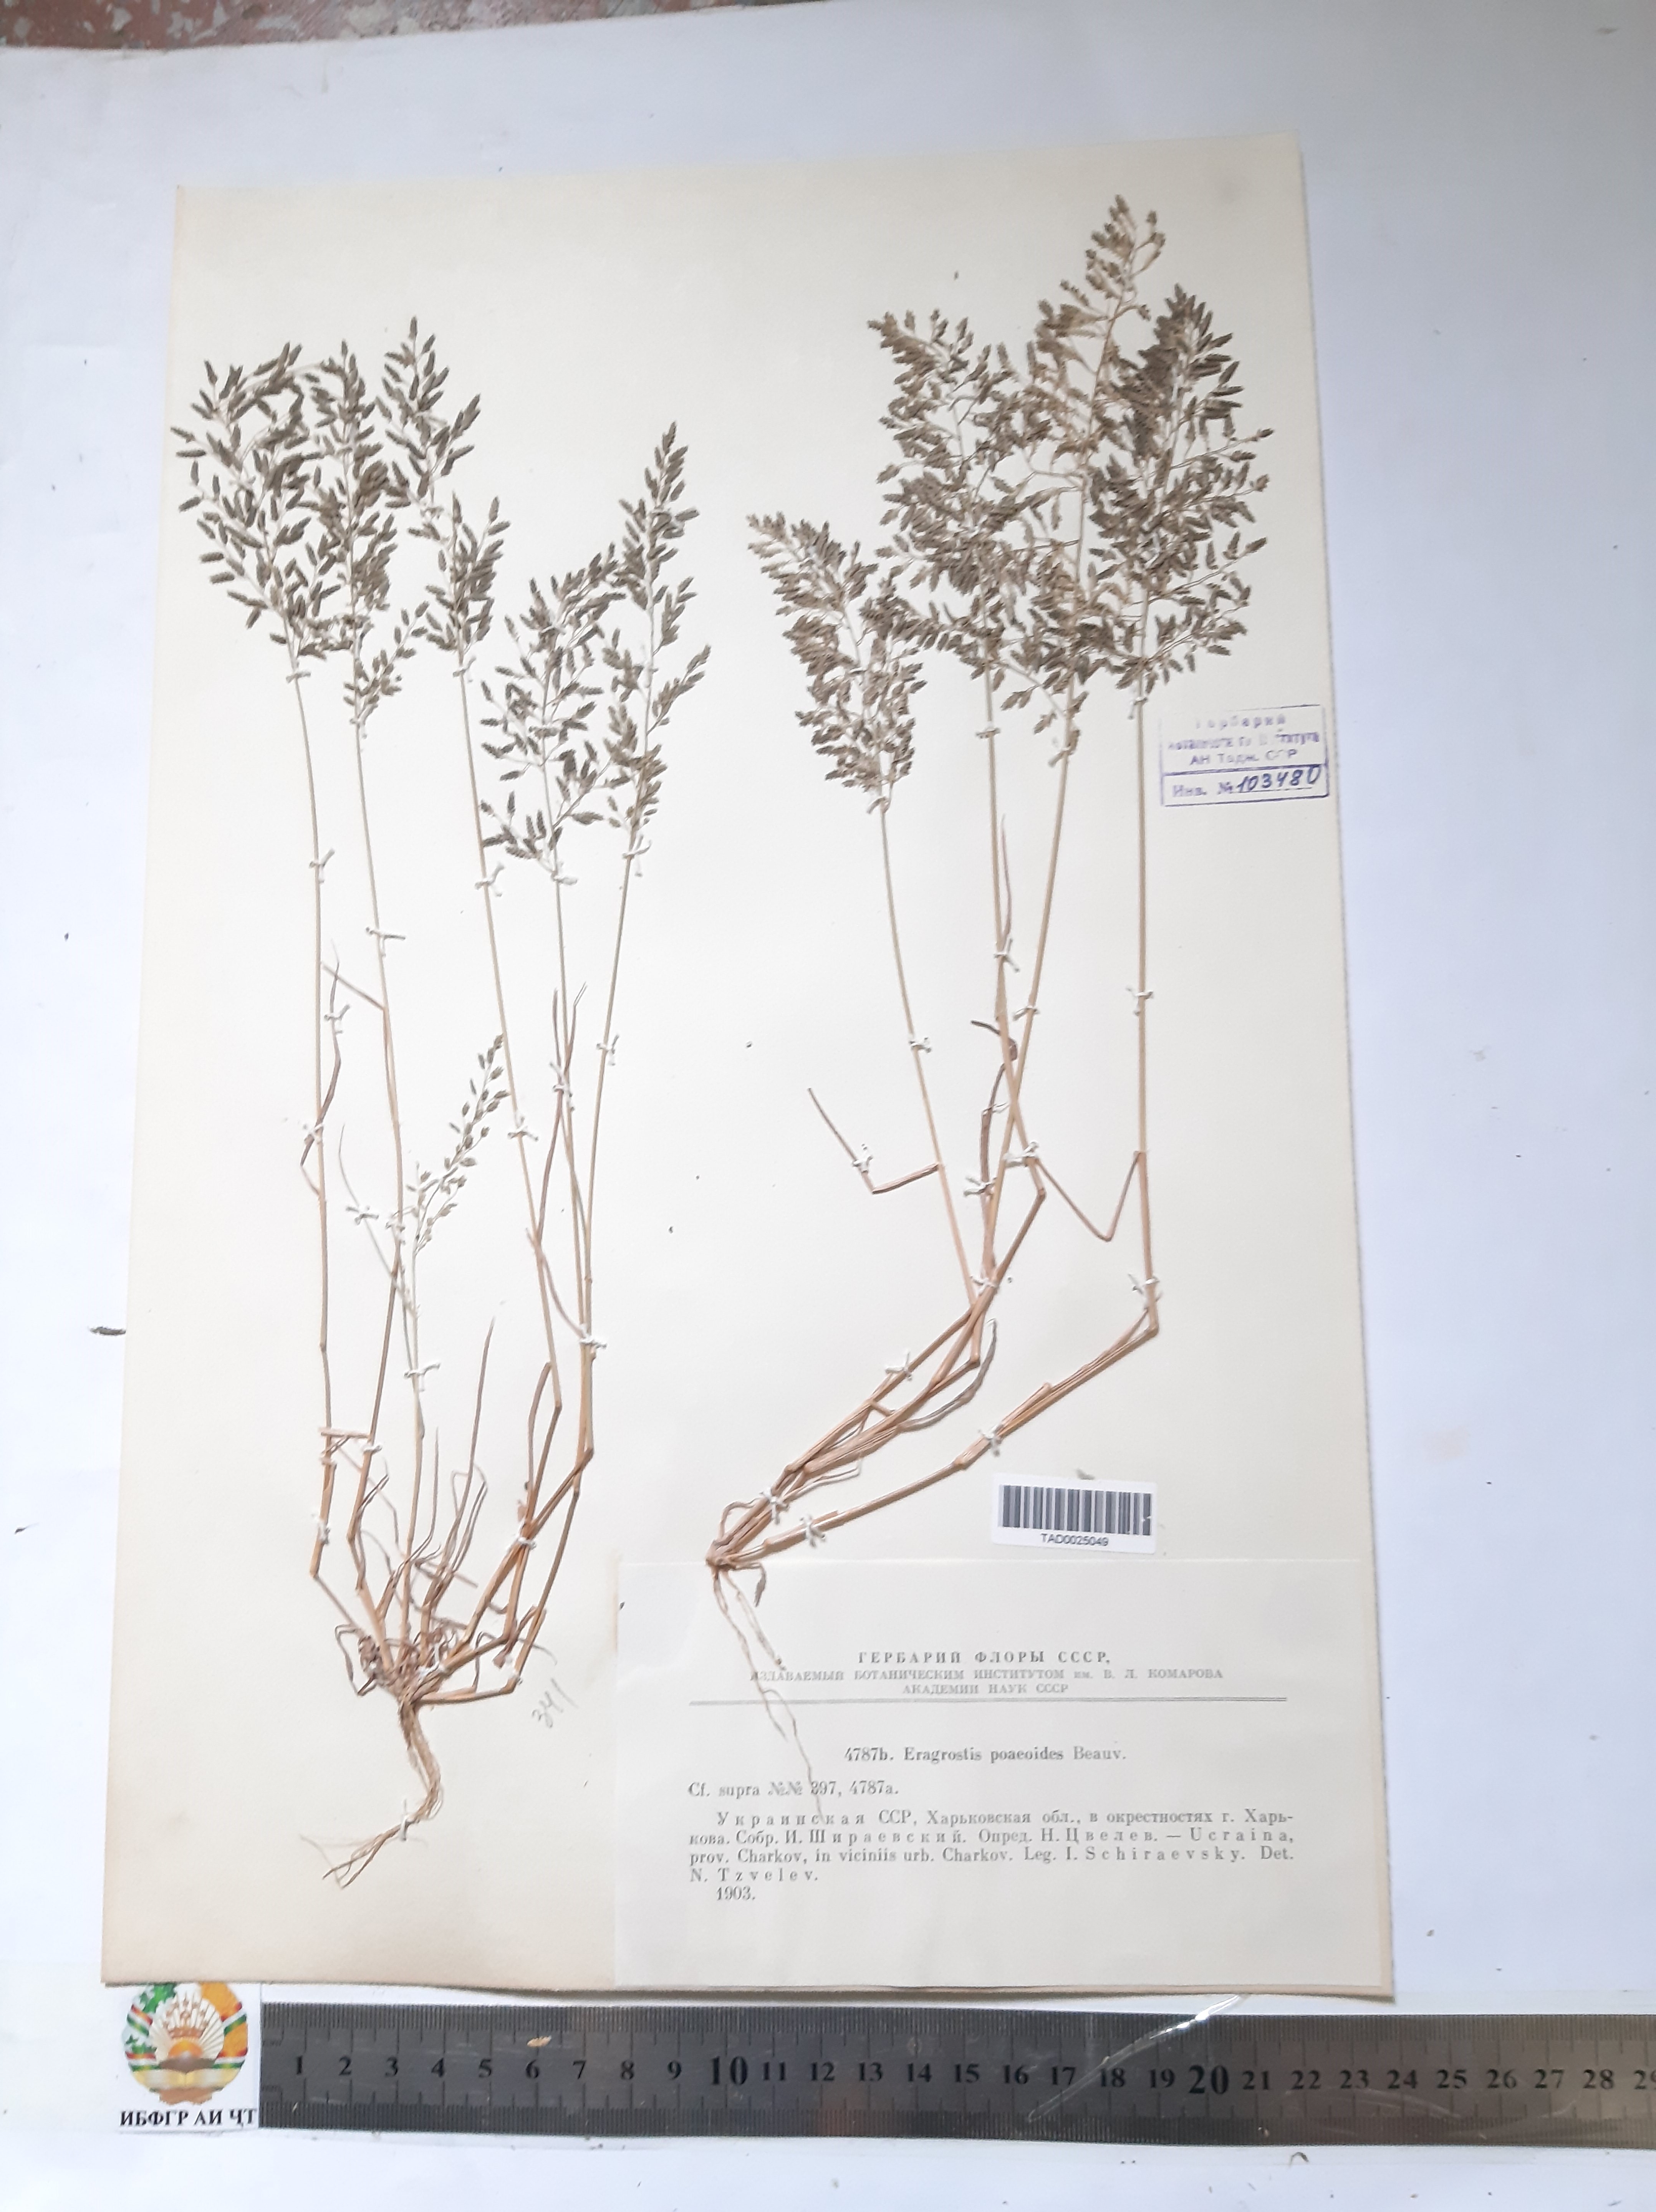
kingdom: Plantae
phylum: Tracheophyta
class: Liliopsida
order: Poales
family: Poaceae
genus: Eragrostis
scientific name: Eragrostis minor
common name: Small love-grass
